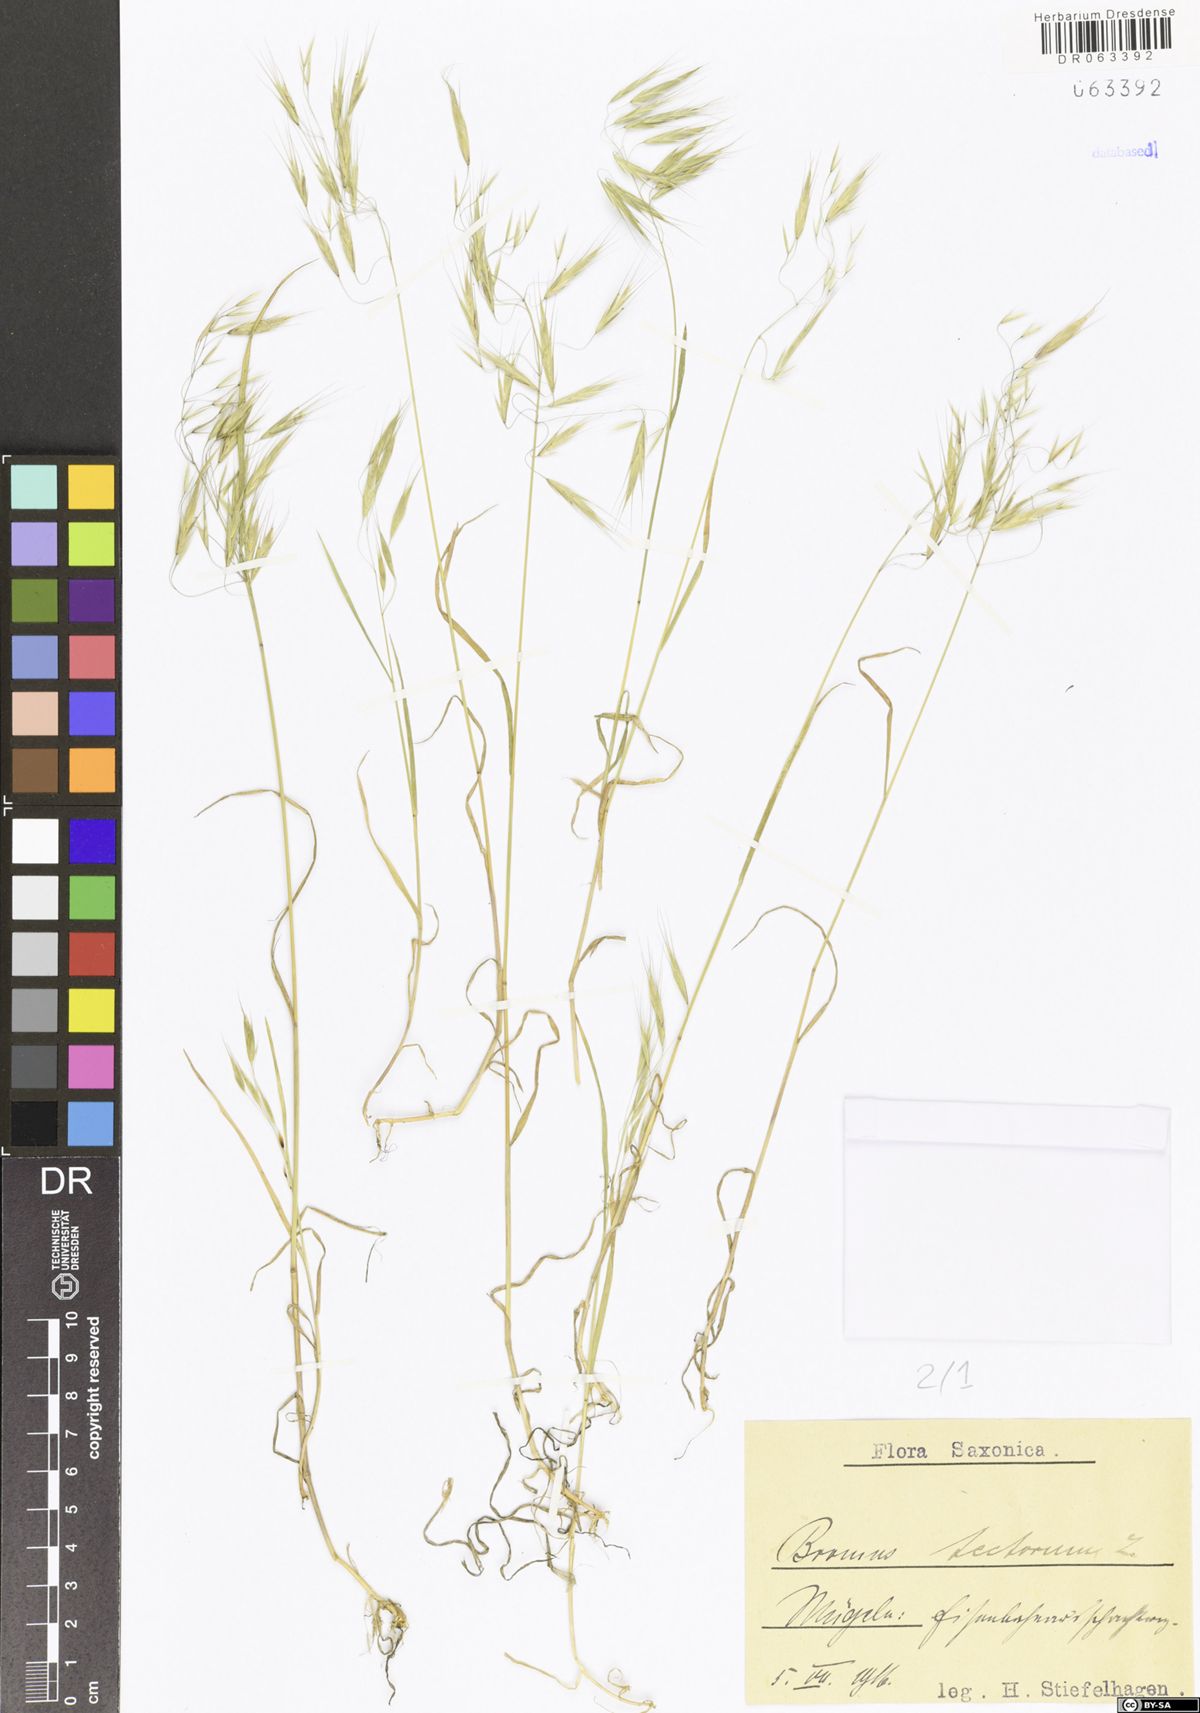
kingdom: Plantae
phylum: Tracheophyta
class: Liliopsida
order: Poales
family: Poaceae
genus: Bromus
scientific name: Bromus tectorum
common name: Cheatgrass
